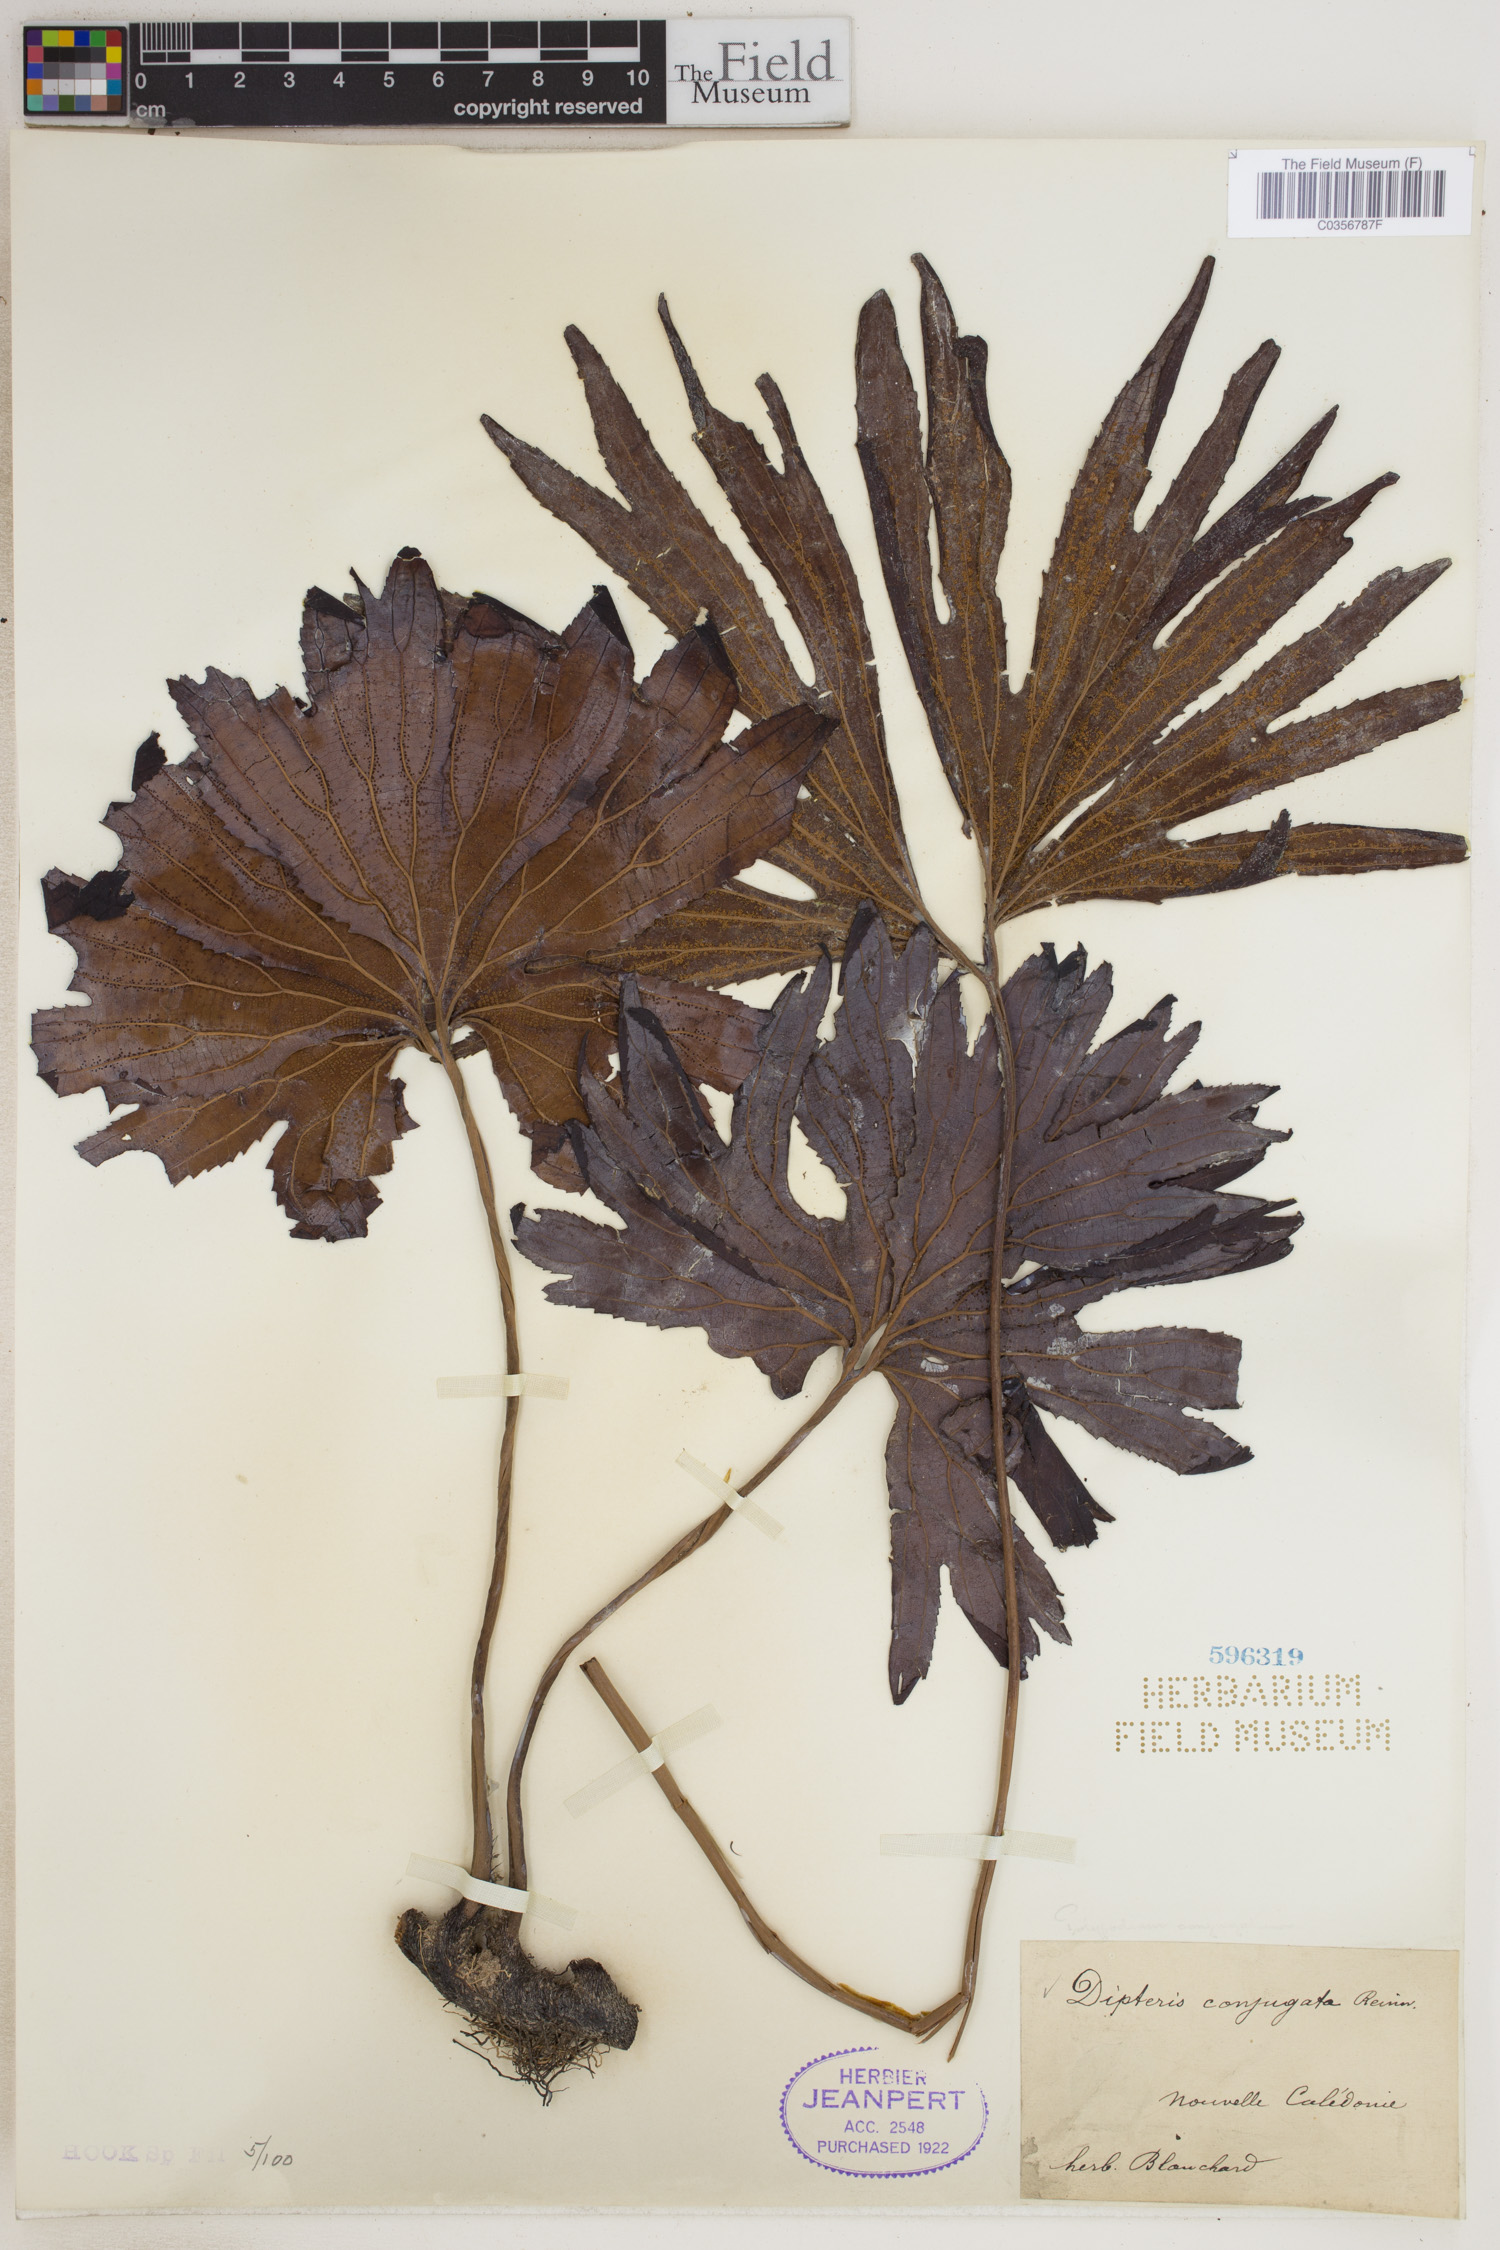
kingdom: Plantae
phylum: Tracheophyta
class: Polypodiopsida
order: Gleicheniales
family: Dipteridaceae
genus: Dipteris
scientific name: Dipteris conjugata
